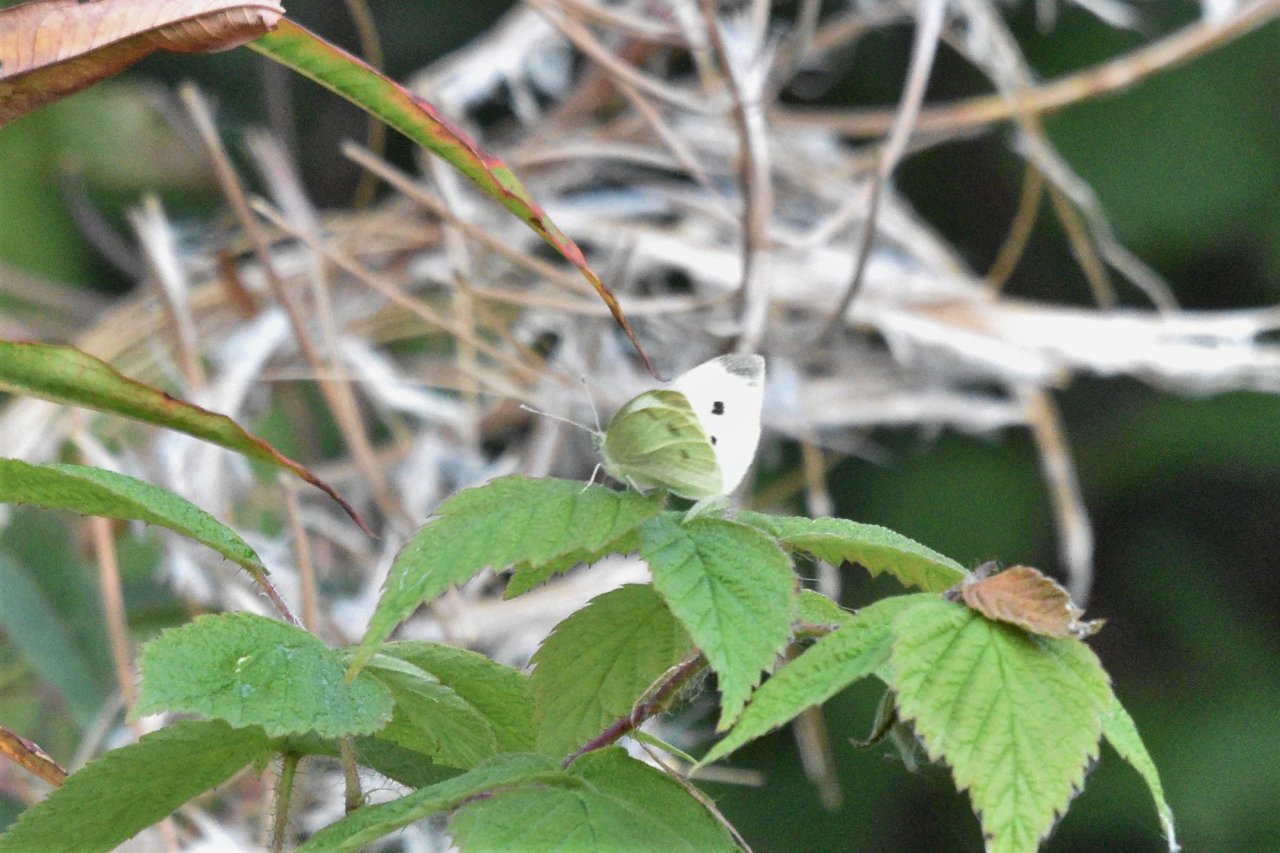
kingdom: Animalia
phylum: Arthropoda
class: Insecta
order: Lepidoptera
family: Pieridae
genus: Pieris
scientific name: Pieris rapae
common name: Cabbage White
